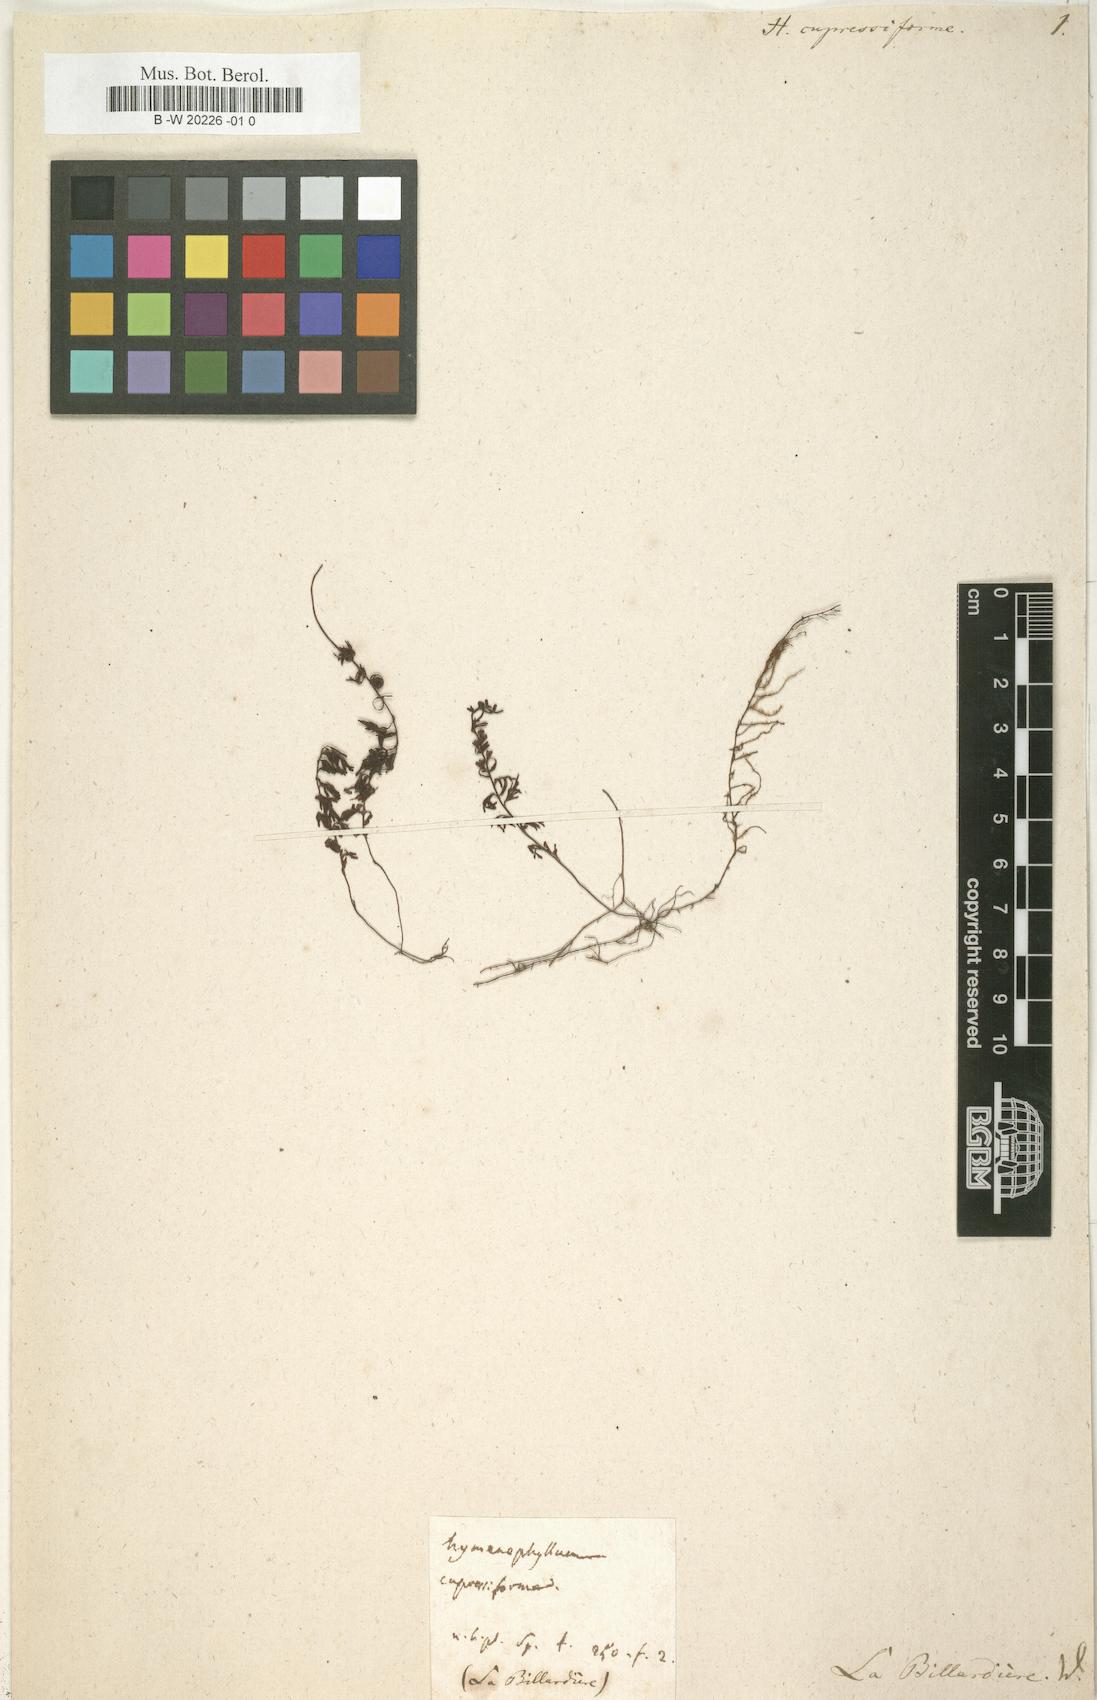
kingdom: Plantae
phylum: Tracheophyta
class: Polypodiopsida
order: Hymenophyllales
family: Hymenophyllaceae
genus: Hymenophyllum
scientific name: Hymenophyllum cupressiforme
